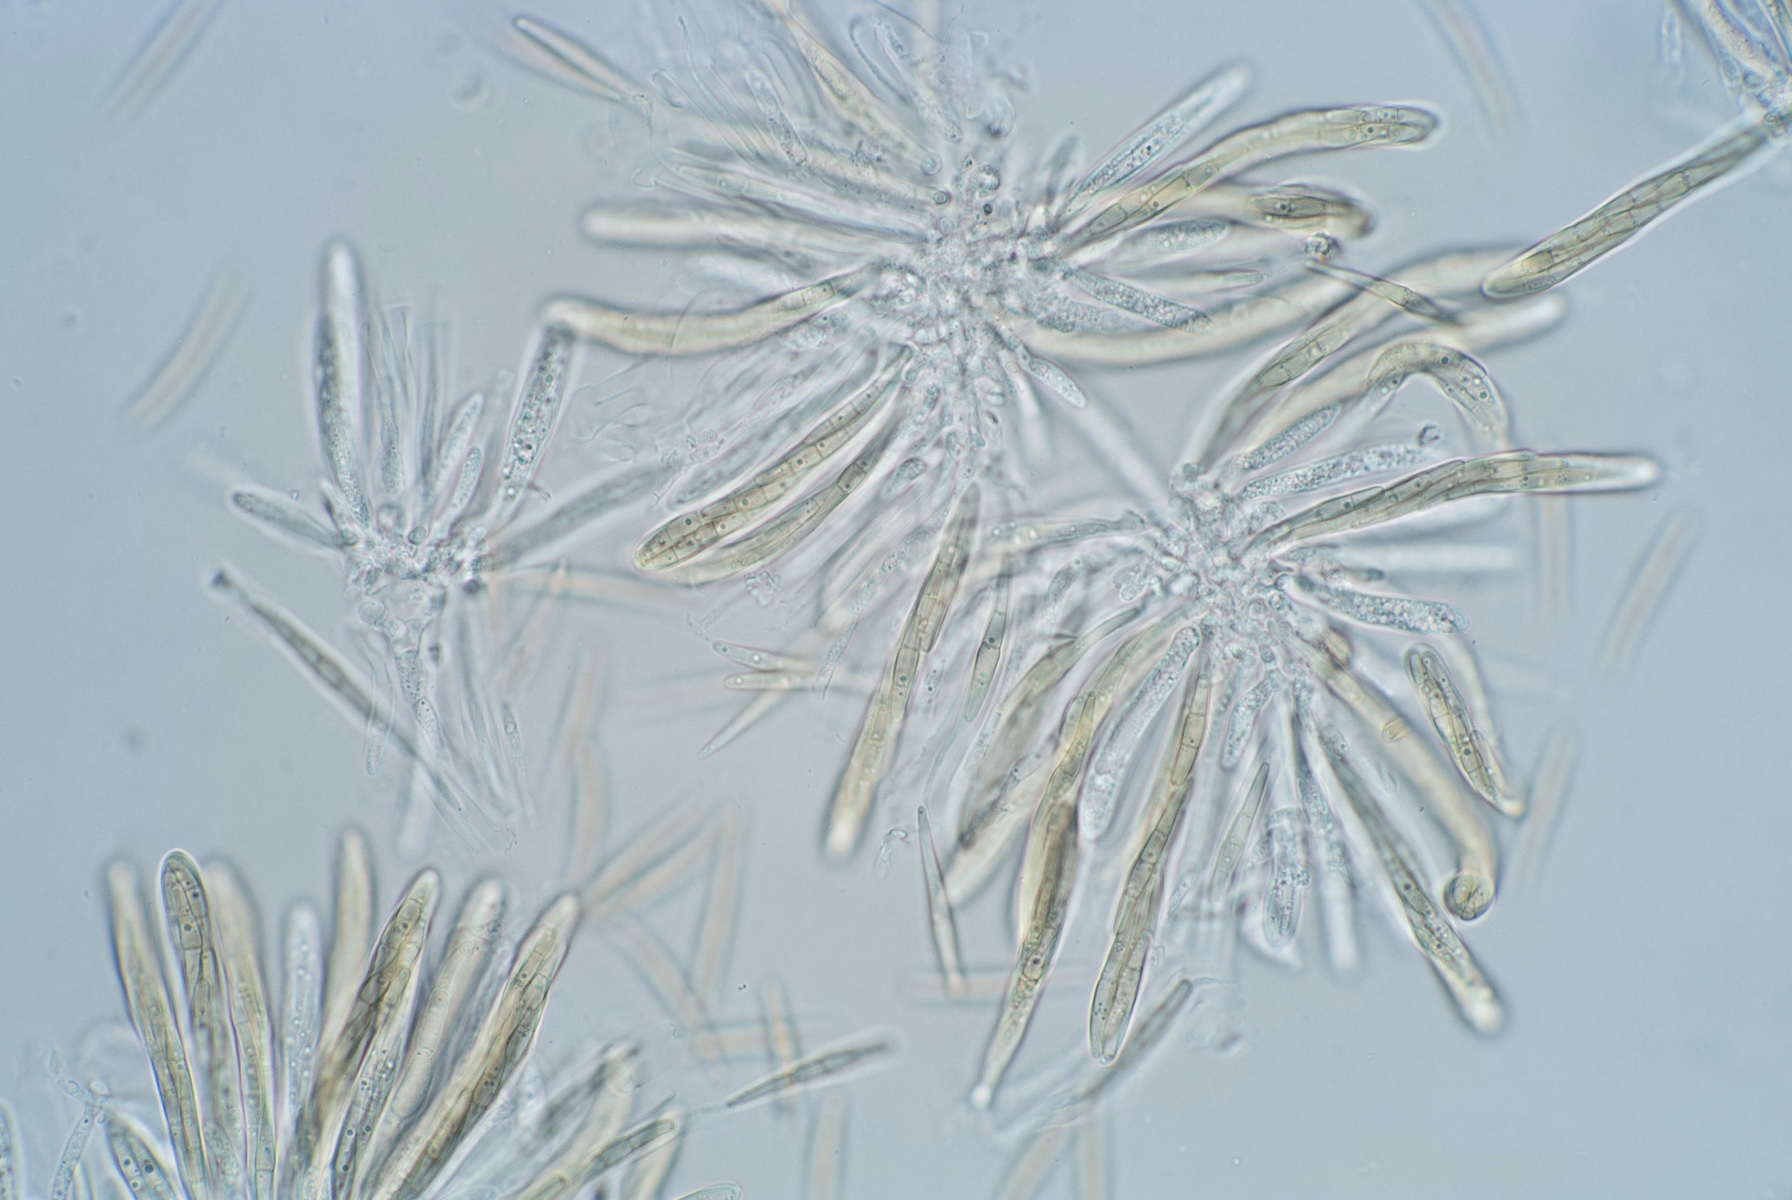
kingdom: Fungi
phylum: Ascomycota
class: Dothideomycetes
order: Pleosporales
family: Leptosphaeriaceae
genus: Leptosphaeria
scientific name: Leptosphaeria scitula
